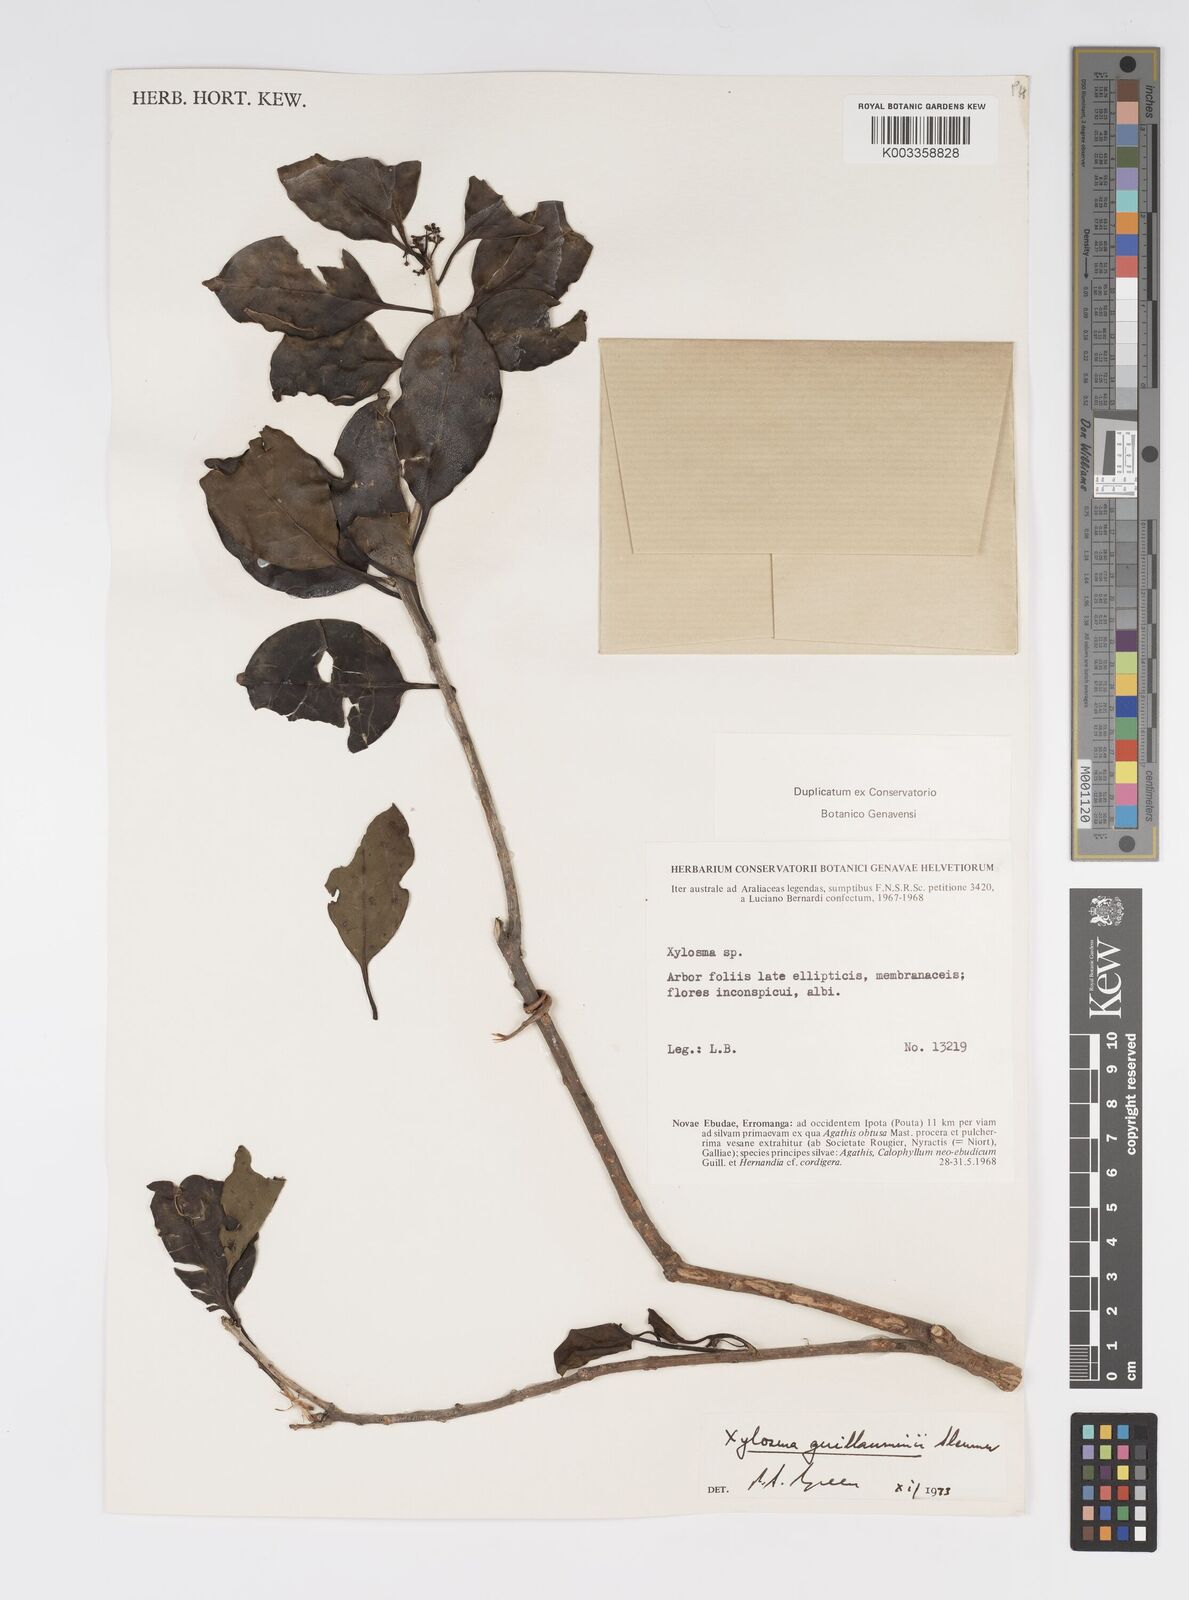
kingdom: Plantae
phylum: Tracheophyta
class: Magnoliopsida
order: Malpighiales
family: Salicaceae
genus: Xylosma
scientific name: Xylosma lifuana
